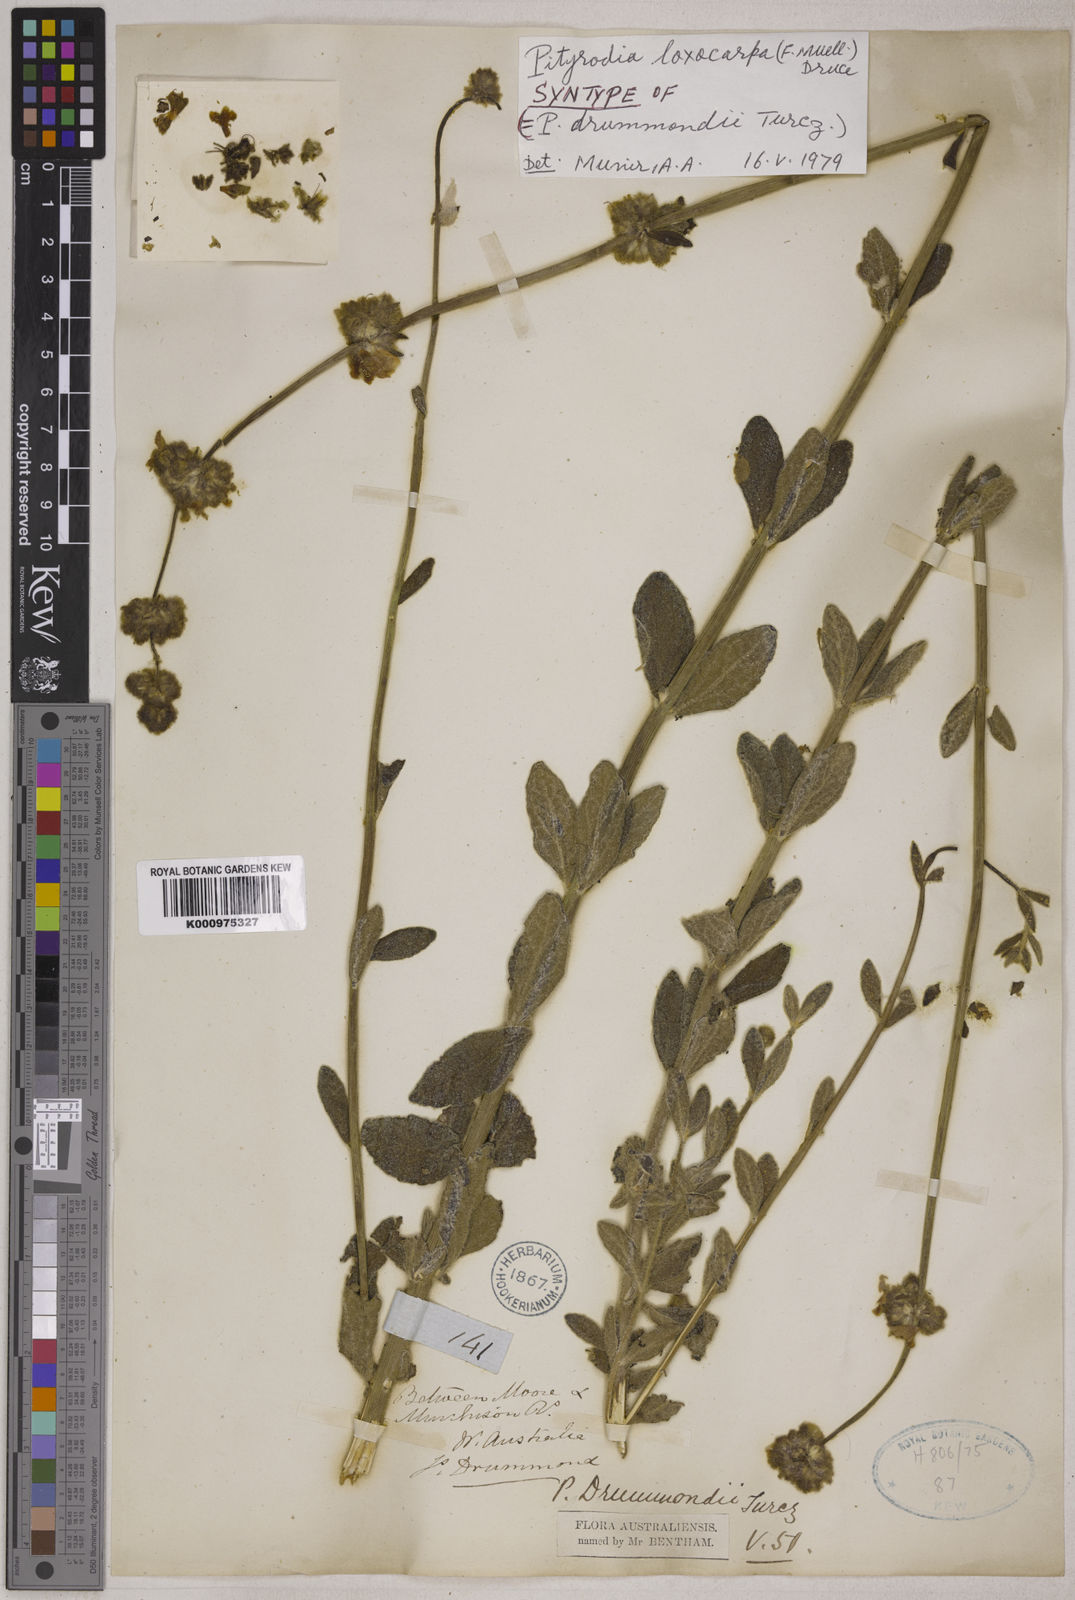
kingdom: Plantae
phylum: Tracheophyta
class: Magnoliopsida
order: Lamiales
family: Lamiaceae
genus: Quoya
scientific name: Quoya loxocarpa
